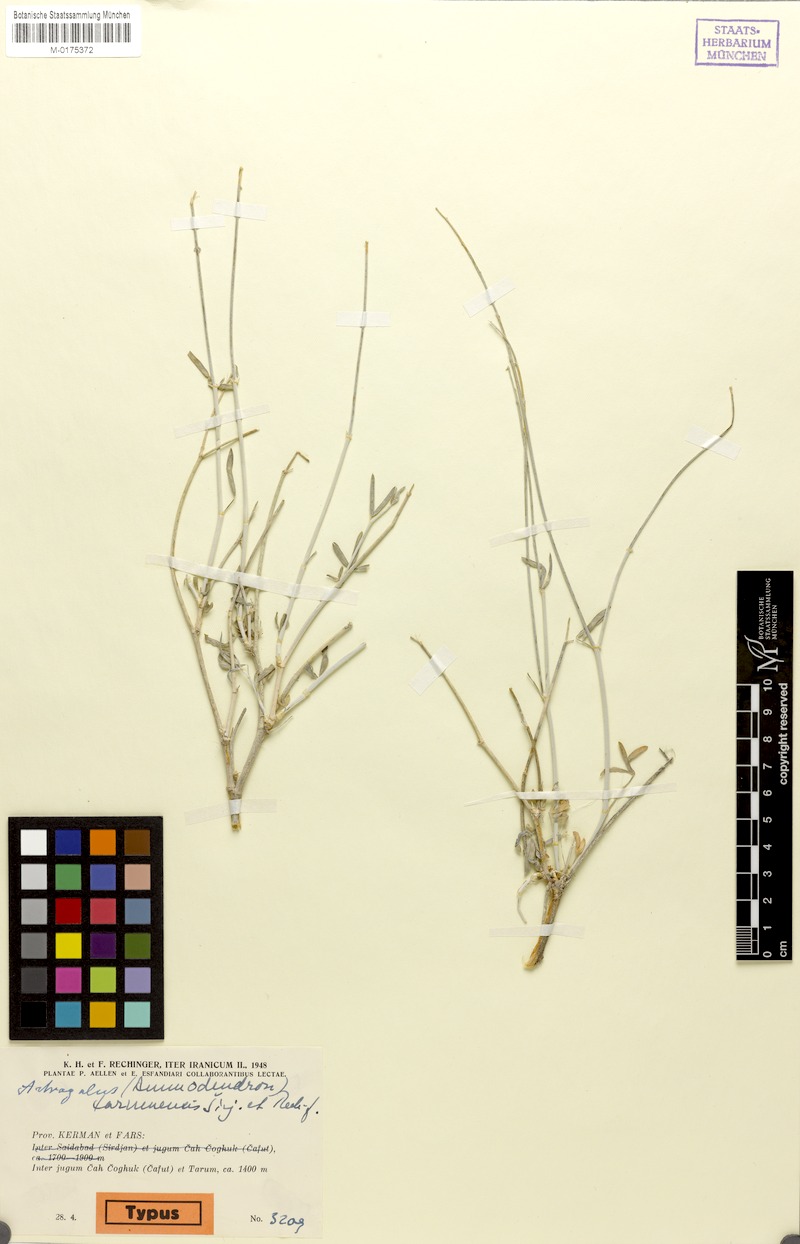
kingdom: Plantae
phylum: Tracheophyta
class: Magnoliopsida
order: Fabales
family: Fabaceae
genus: Astragalus
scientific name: Astragalus tarumensis
